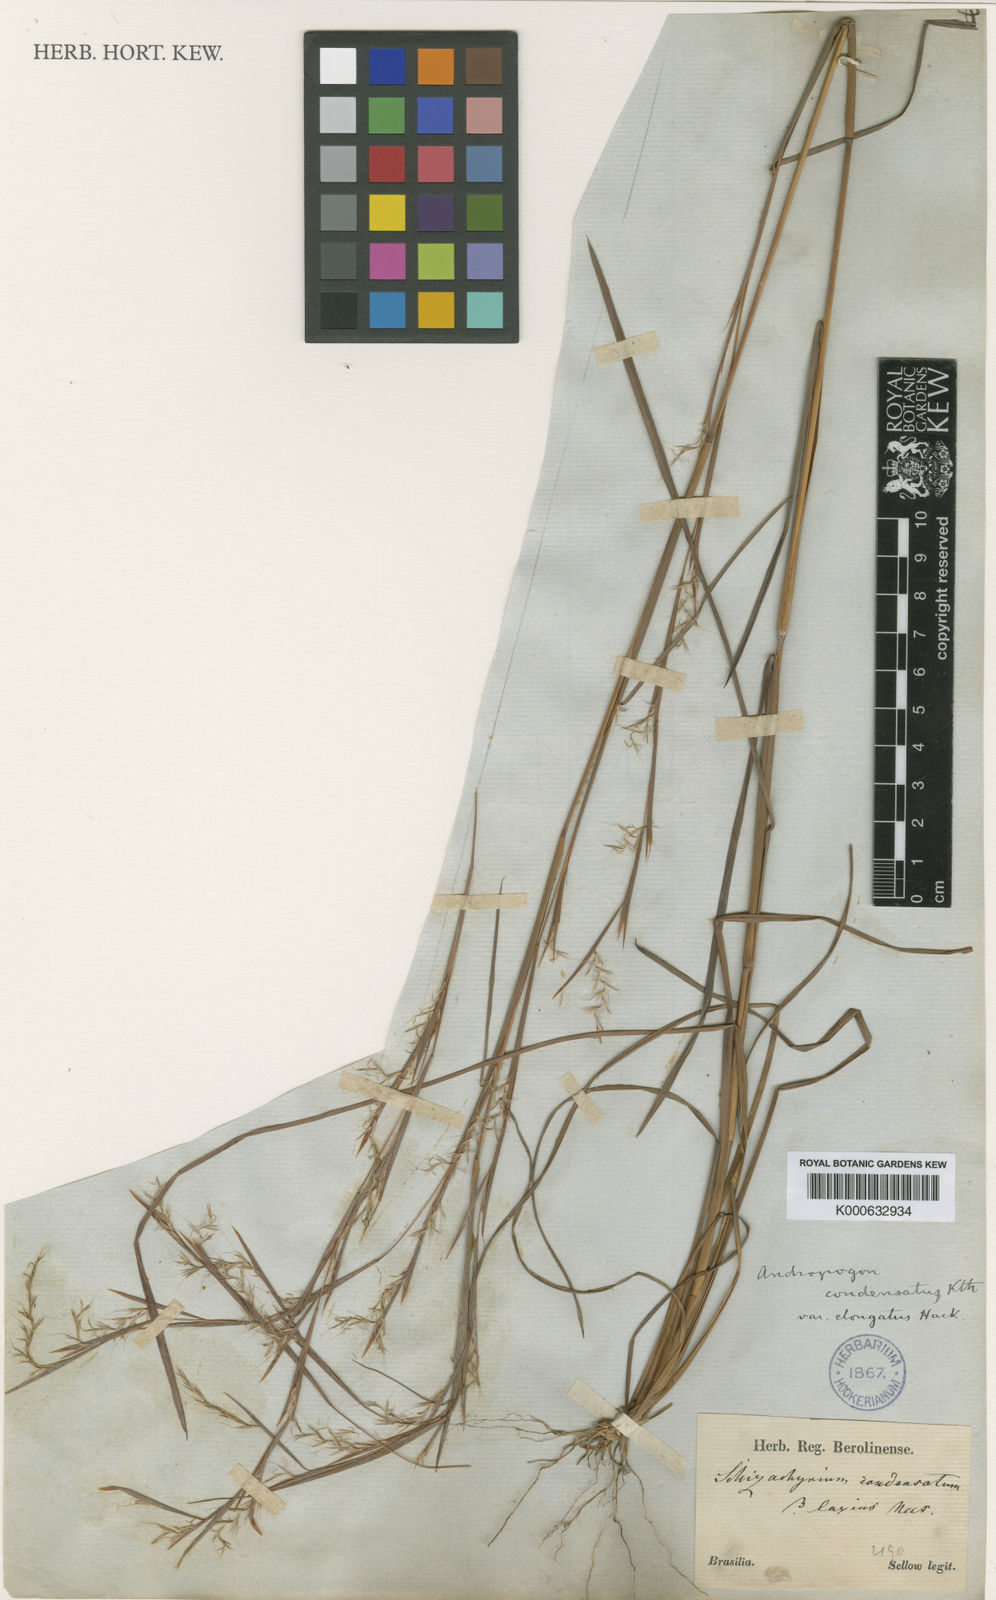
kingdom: Plantae
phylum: Tracheophyta
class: Liliopsida
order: Poales
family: Poaceae
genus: Schizachyrium
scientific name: Schizachyrium hatschbachii
